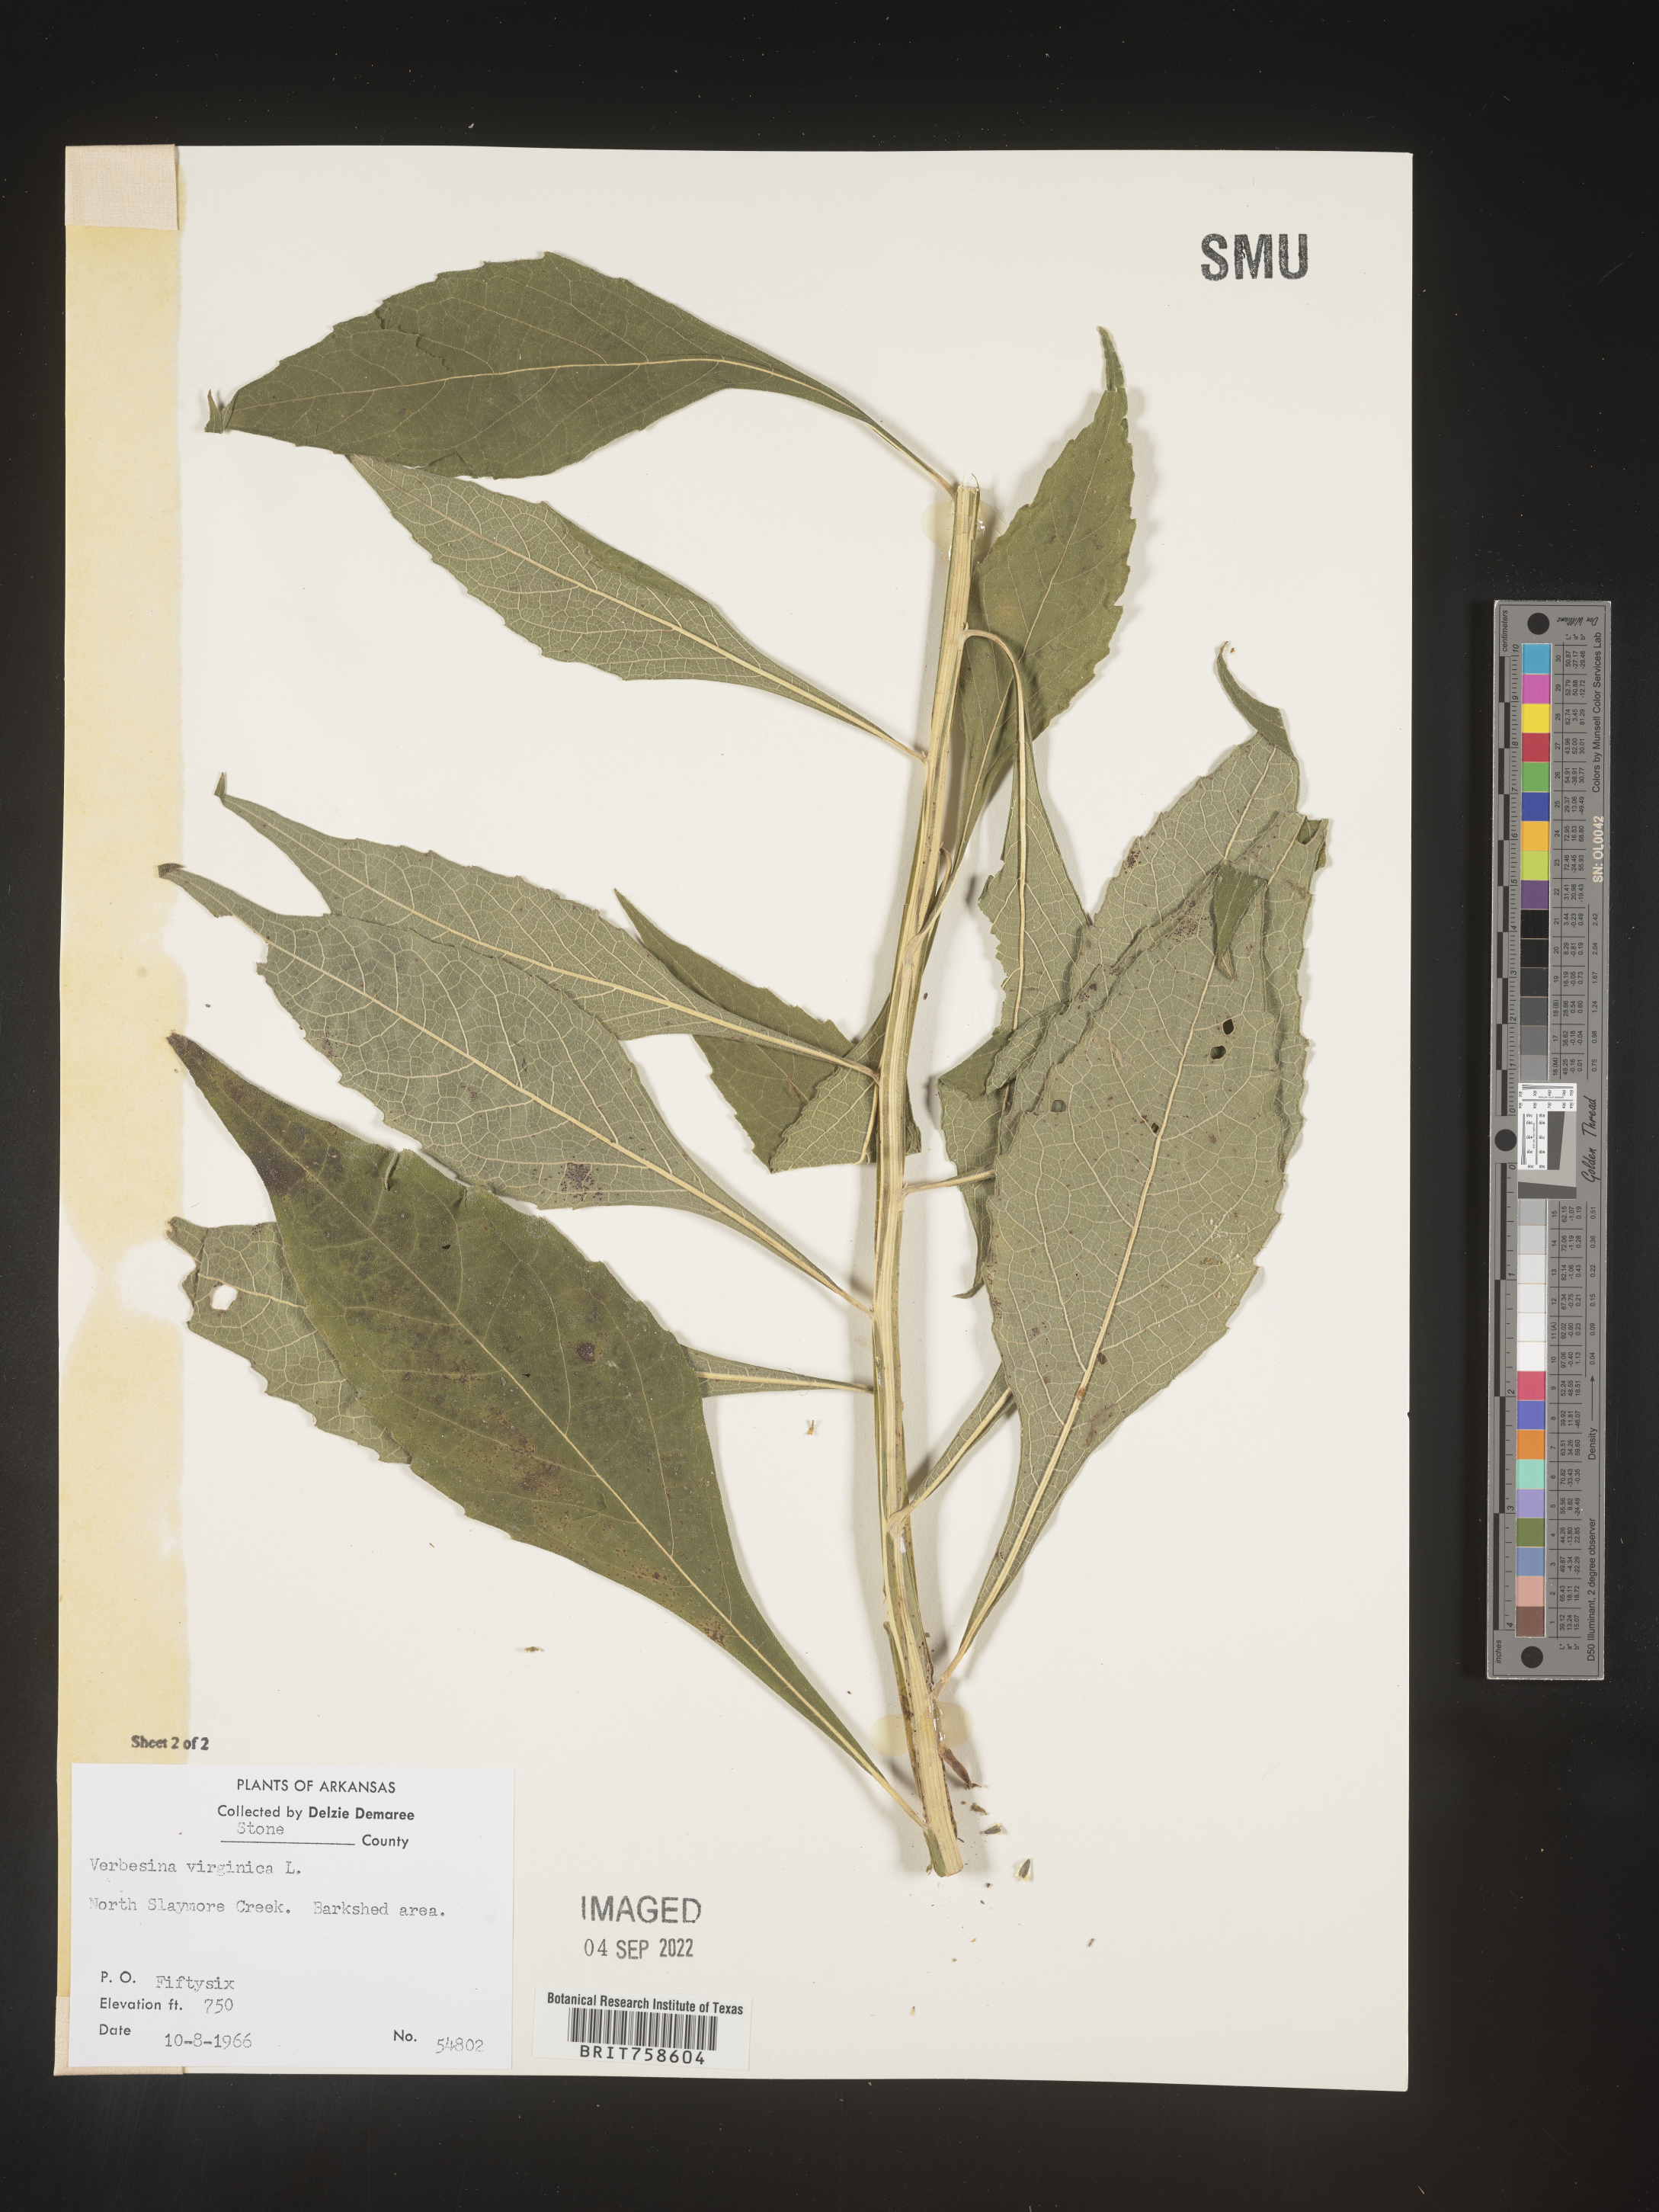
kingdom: Plantae
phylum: Tracheophyta
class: Magnoliopsida
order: Asterales
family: Asteraceae
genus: Verbesina
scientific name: Verbesina virginica
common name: Frostweed
